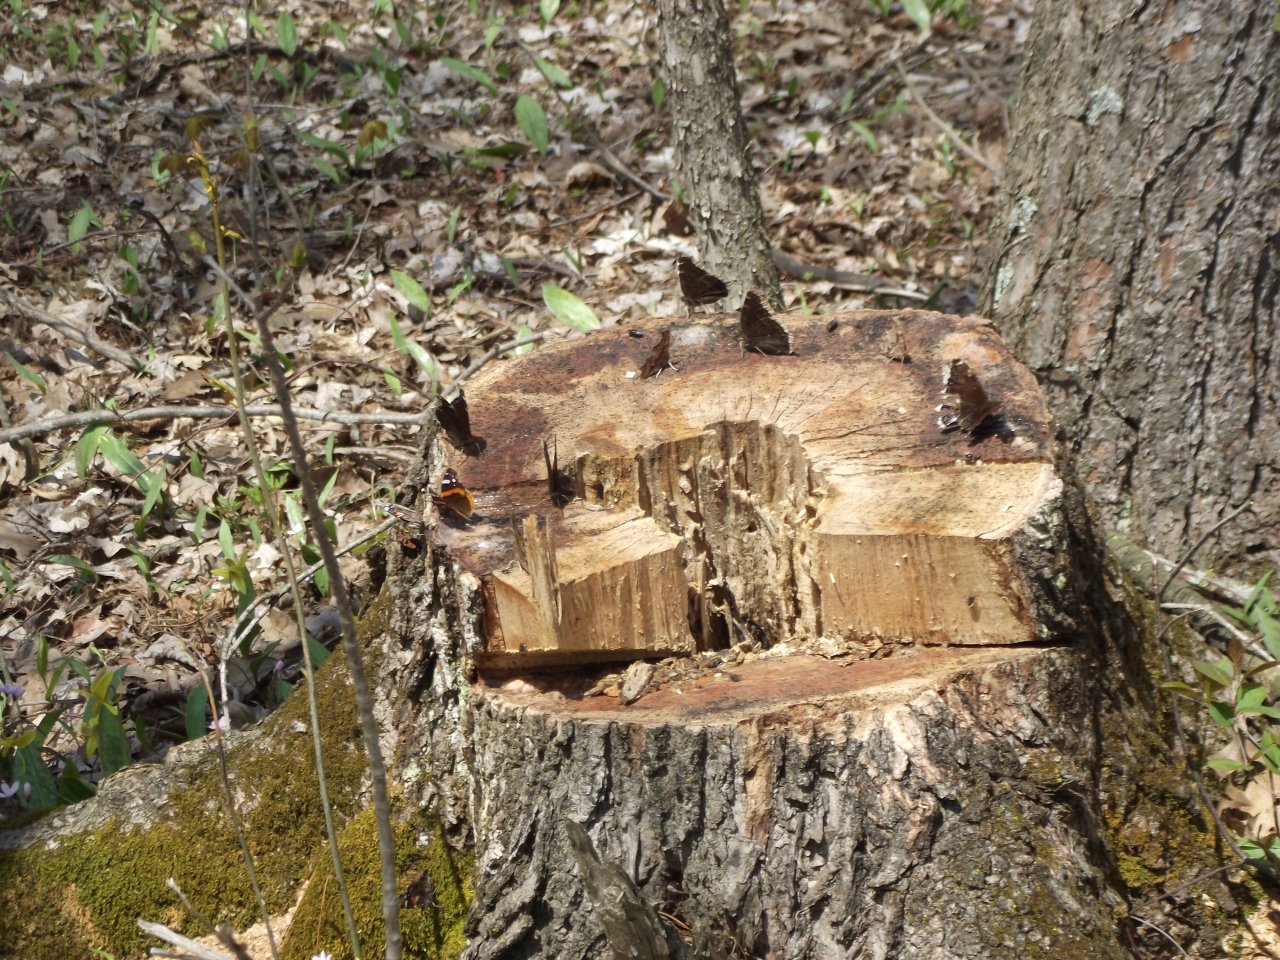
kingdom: Animalia
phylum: Arthropoda
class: Insecta
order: Lepidoptera
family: Nymphalidae
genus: Nymphalis
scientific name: Nymphalis antiopa
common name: Mourning Cloak
